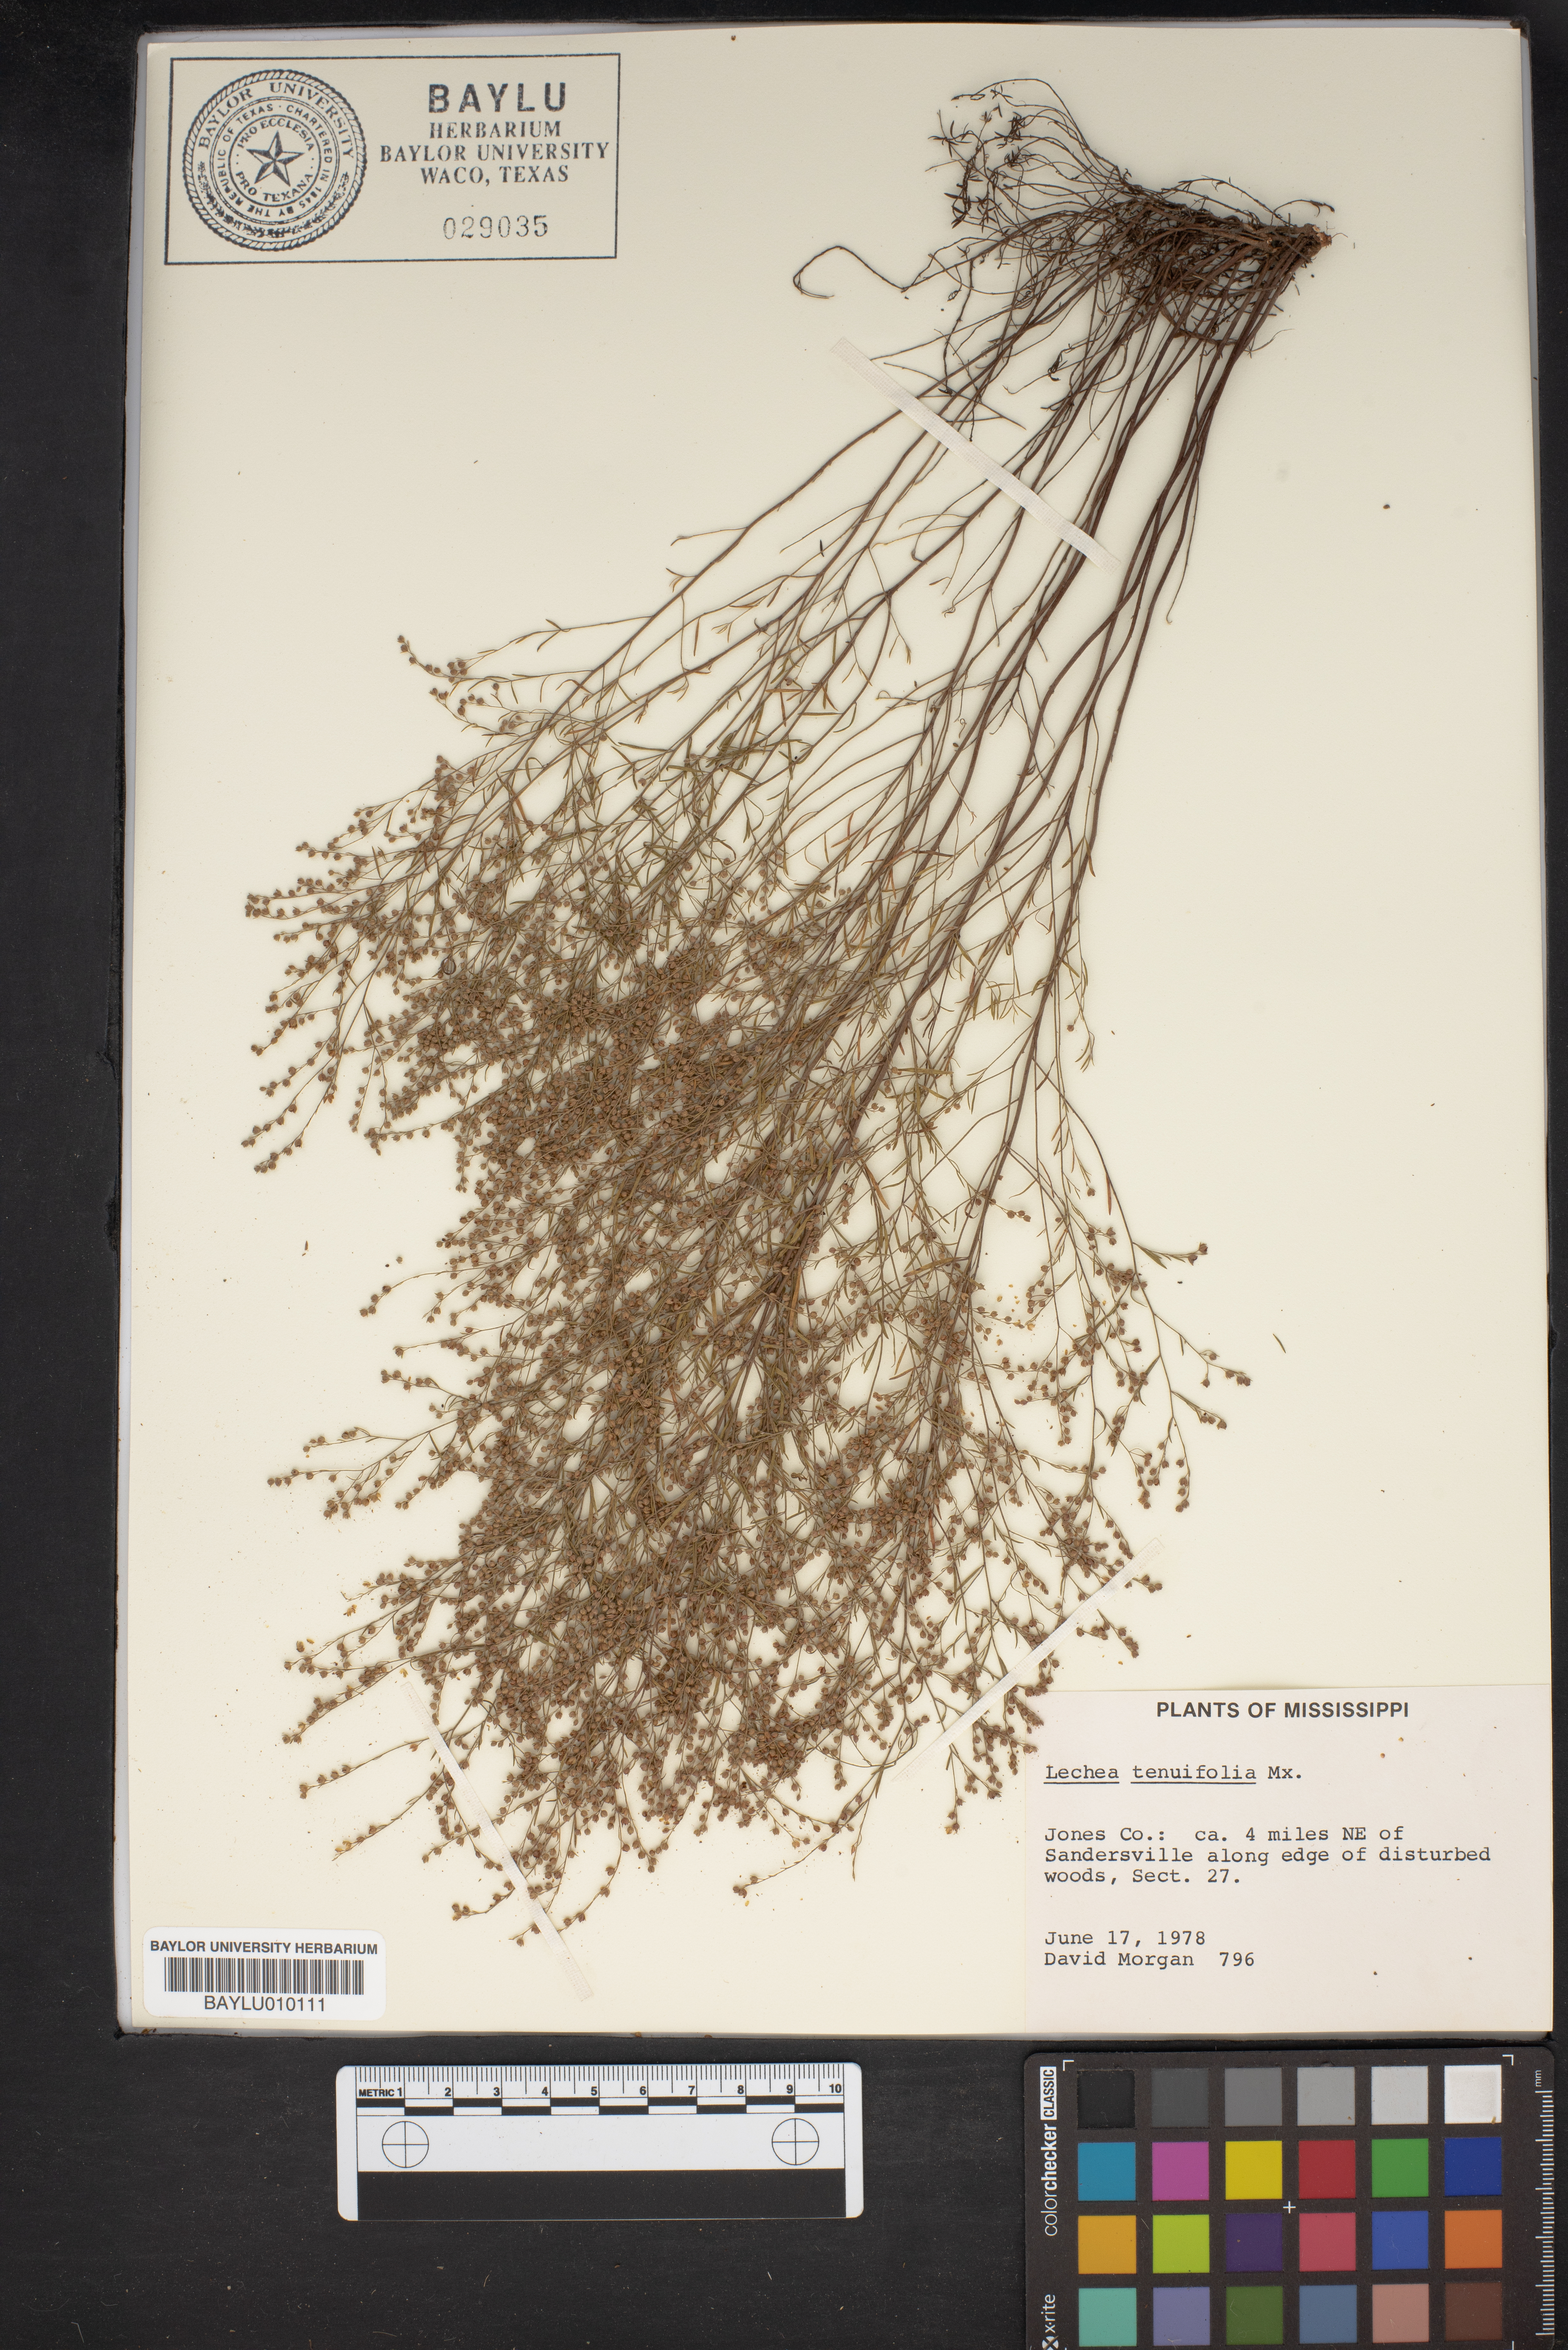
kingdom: Plantae
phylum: Tracheophyta
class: Magnoliopsida
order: Malvales
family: Cistaceae
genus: Lechea
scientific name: Lechea tenuifolia
